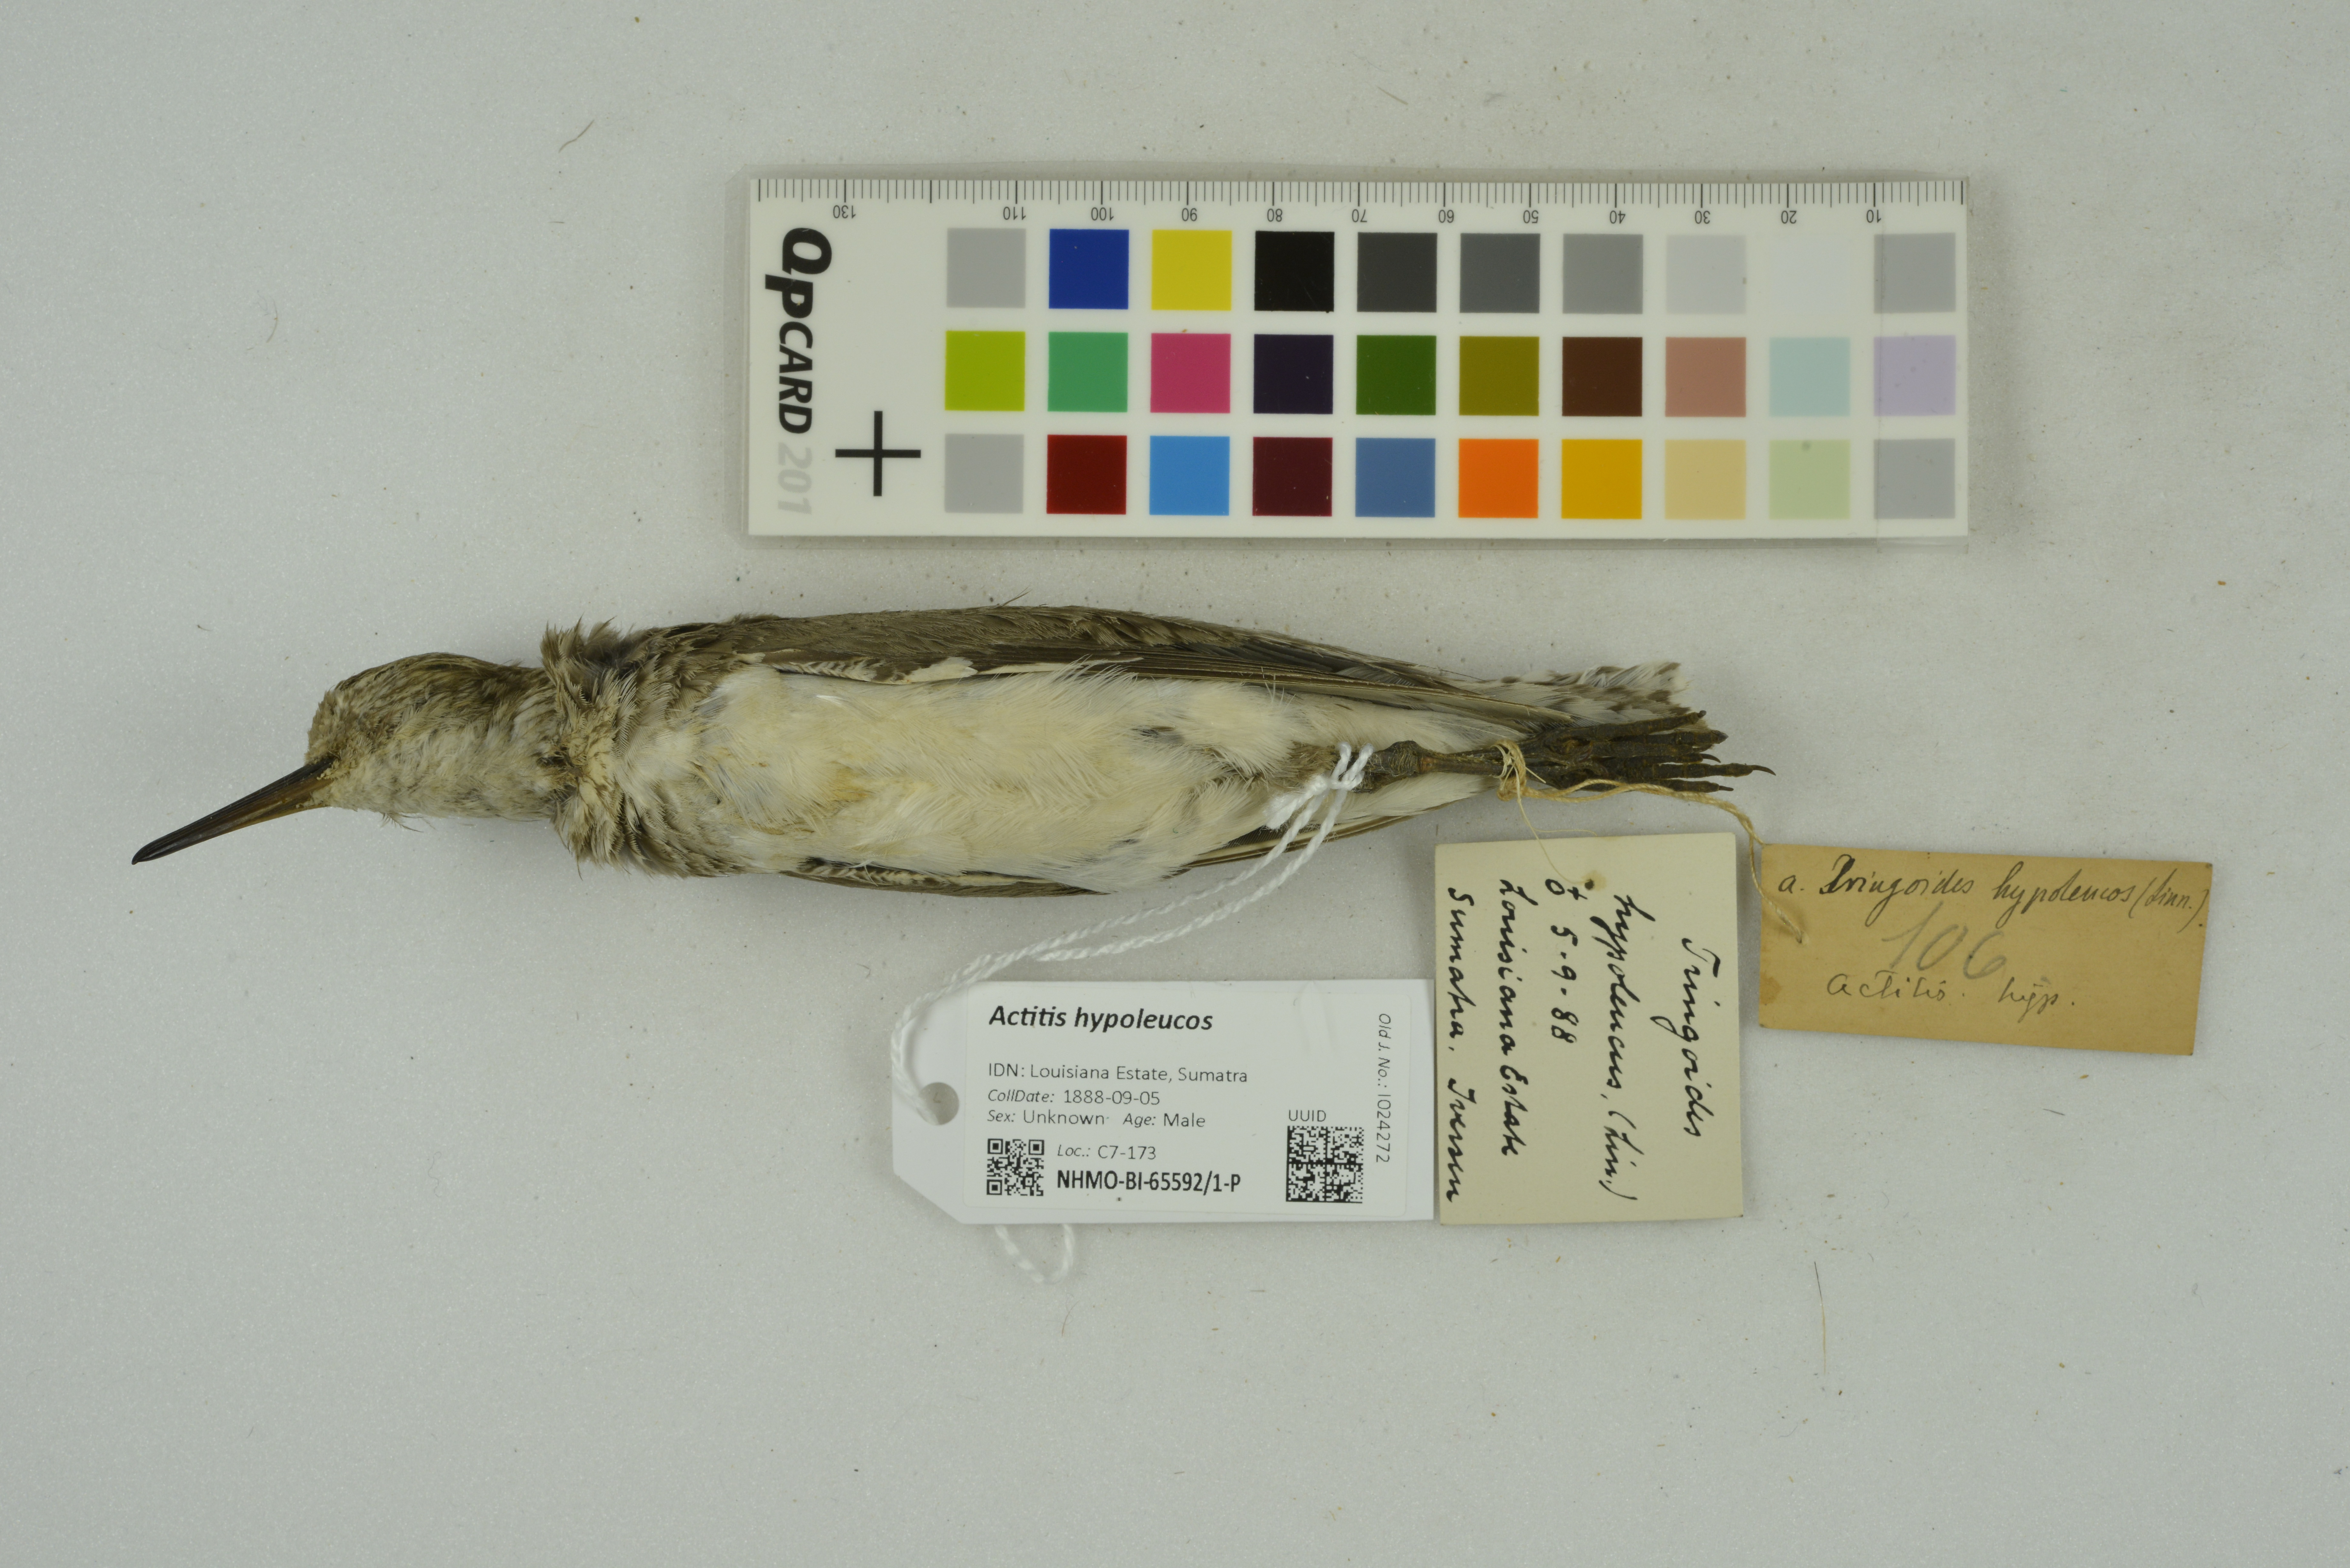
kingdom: Animalia
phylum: Chordata
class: Aves
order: Charadriiformes
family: Scolopacidae
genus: Actitis
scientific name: Actitis hypoleucos
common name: Common sandpiper
